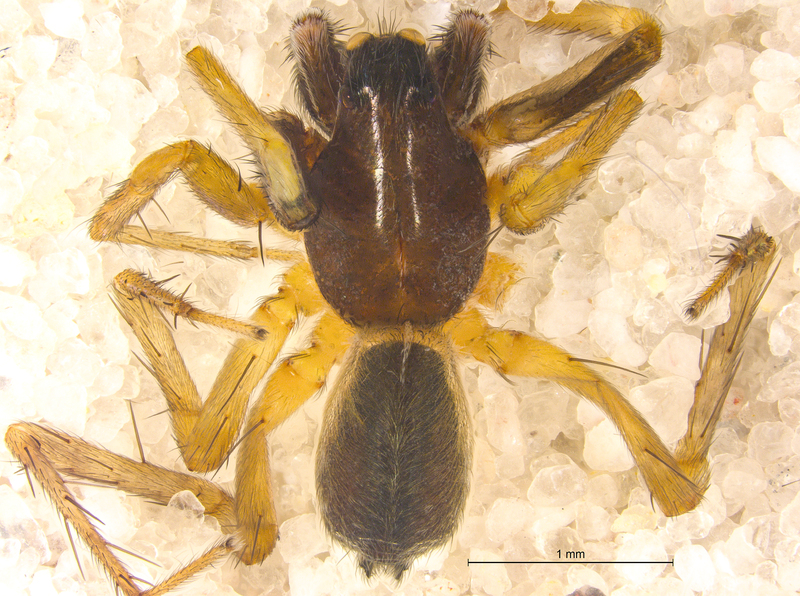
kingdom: Animalia
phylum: Arthropoda
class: Arachnida
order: Araneae
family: Lycosidae
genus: Aulonia
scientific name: Aulonia albimana
